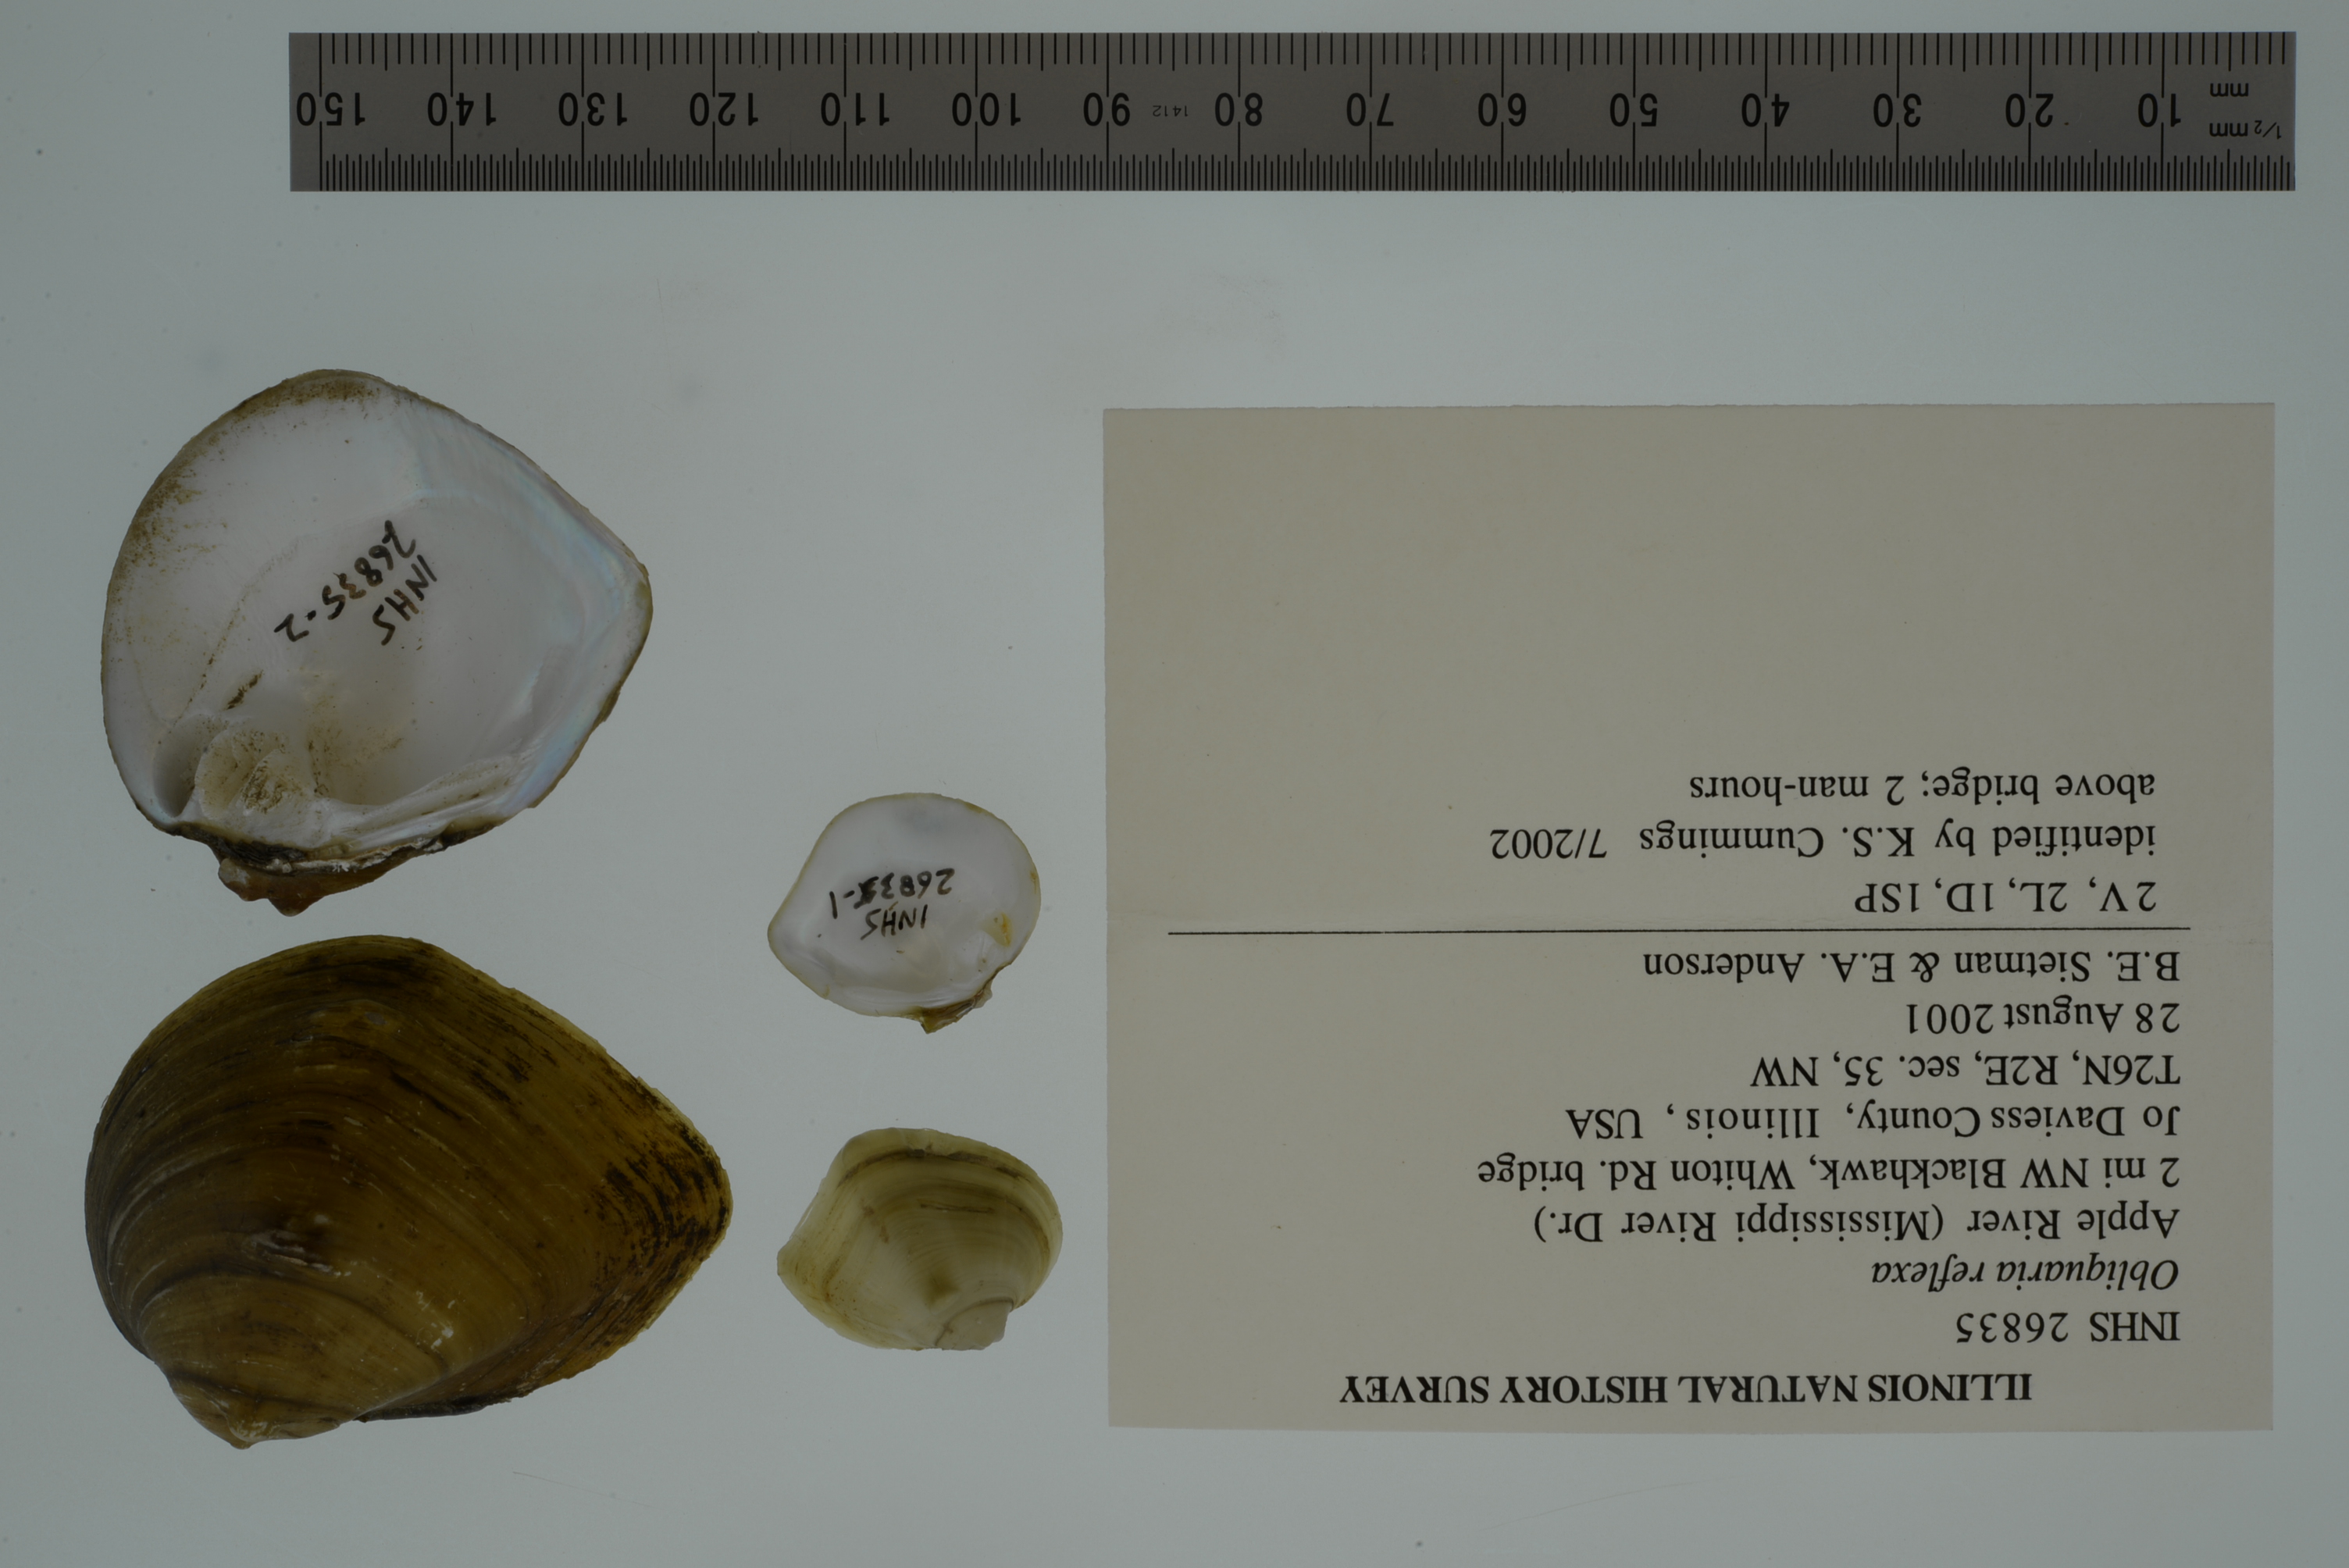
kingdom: Animalia
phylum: Mollusca
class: Bivalvia
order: Unionida
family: Unionidae
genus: Obliquaria
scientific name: Obliquaria reflexa
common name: Threehorn wartyback
